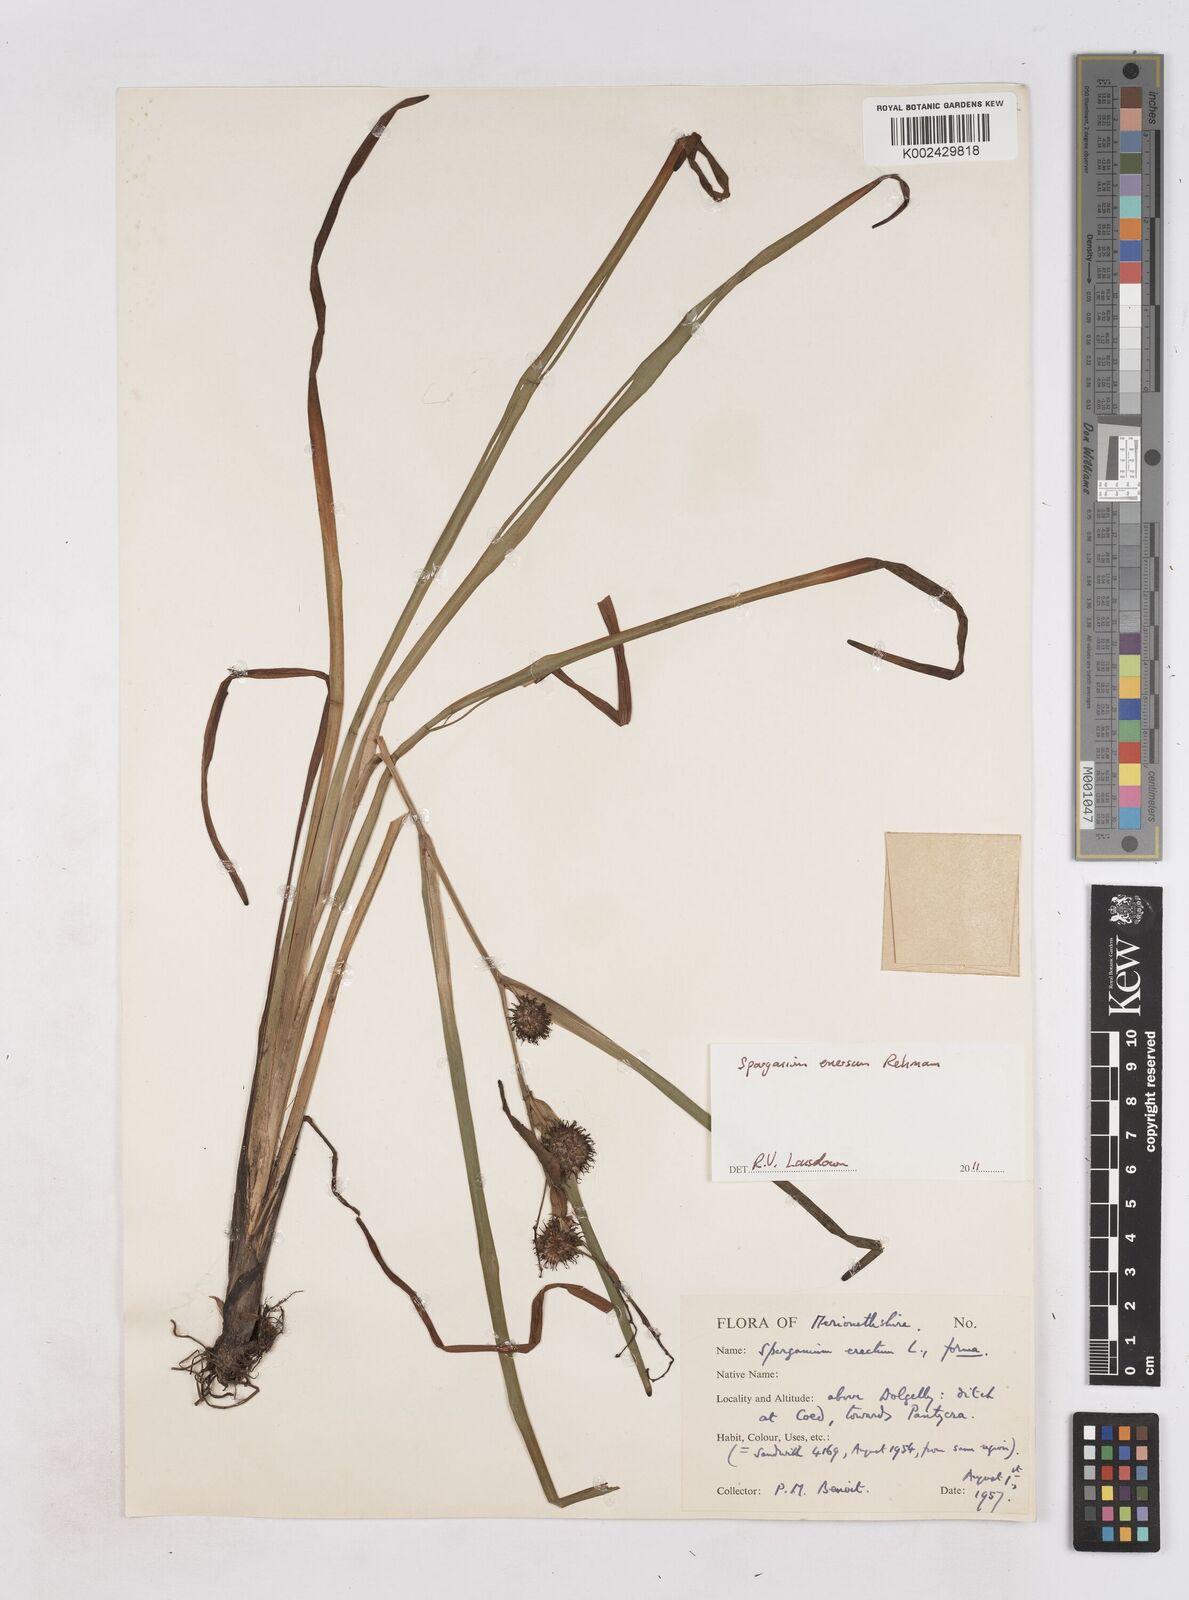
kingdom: Plantae
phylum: Tracheophyta
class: Liliopsida
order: Poales
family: Typhaceae
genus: Sparganium
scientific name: Sparganium emersum
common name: Unbranched bur-reed
